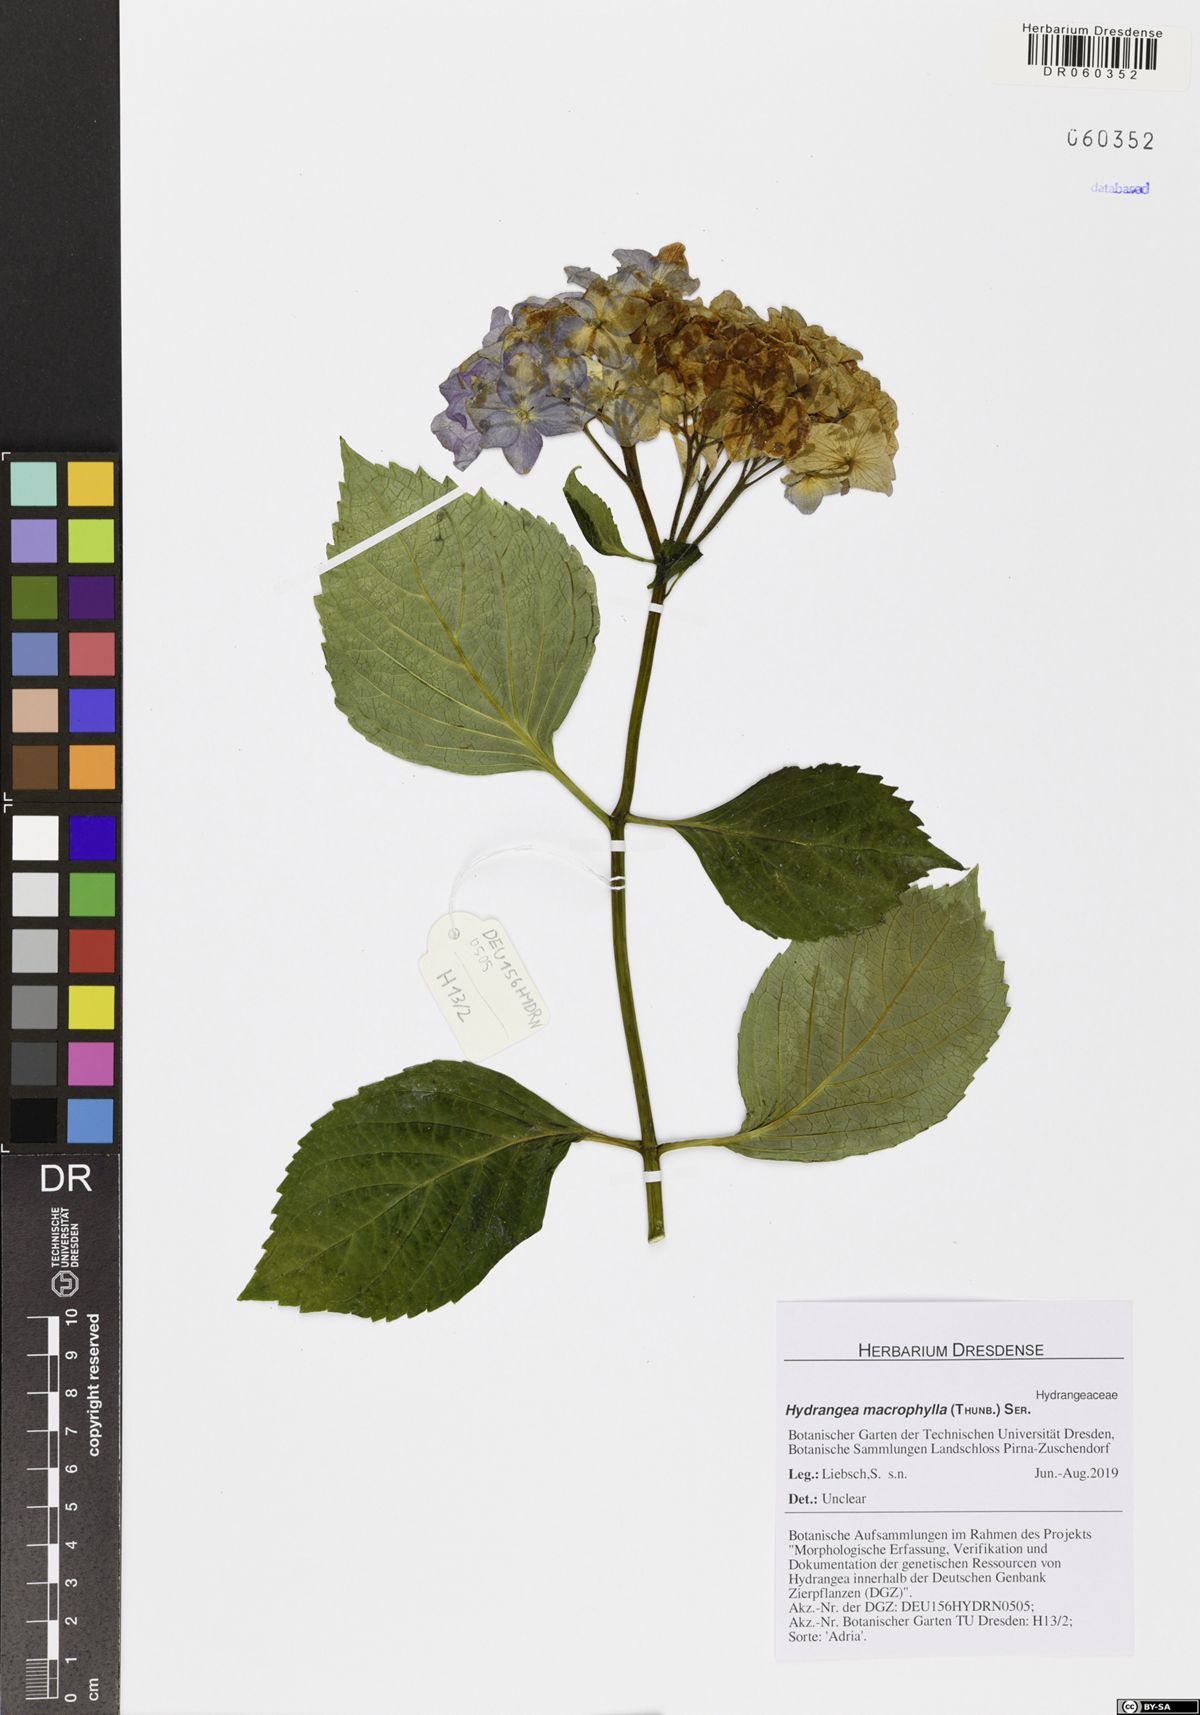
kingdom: Plantae
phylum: Tracheophyta
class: Magnoliopsida
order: Cornales
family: Hydrangeaceae
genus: Hydrangea
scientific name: Hydrangea macrophylla
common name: Hydrangea
